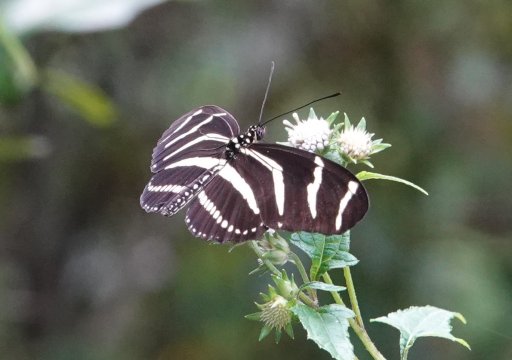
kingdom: Animalia
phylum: Arthropoda
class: Insecta
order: Lepidoptera
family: Nymphalidae
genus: Heliconius
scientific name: Heliconius charithonia
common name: Zebra Longwing
